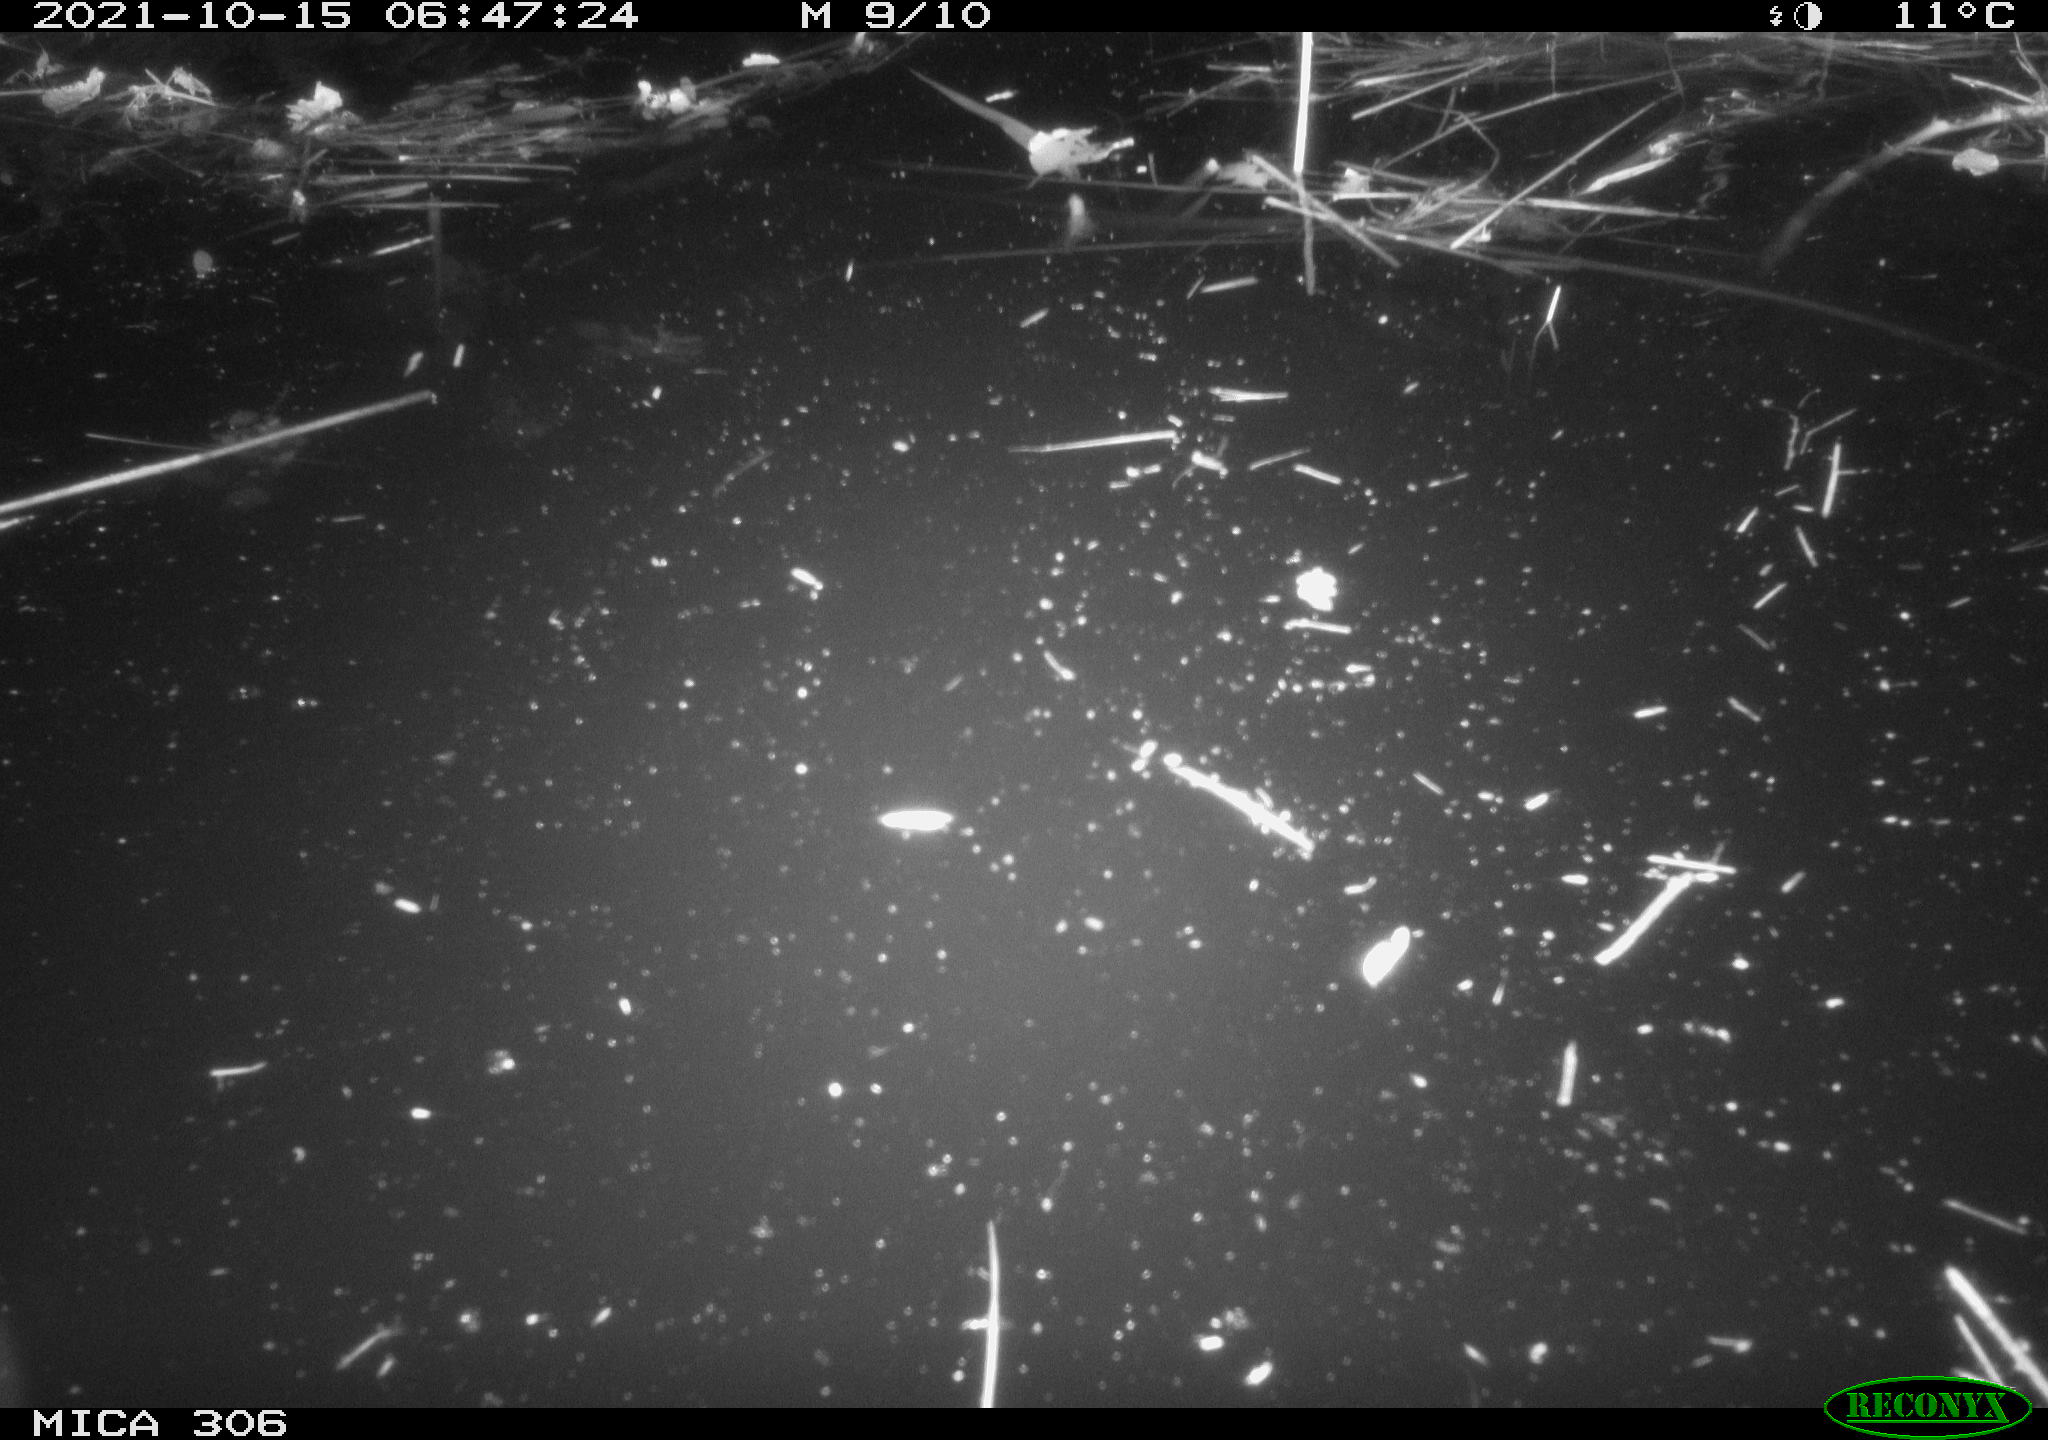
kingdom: Animalia
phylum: Chordata
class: Mammalia
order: Rodentia
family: Cricetidae
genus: Ondatra
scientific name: Ondatra zibethicus
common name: Muskrat
